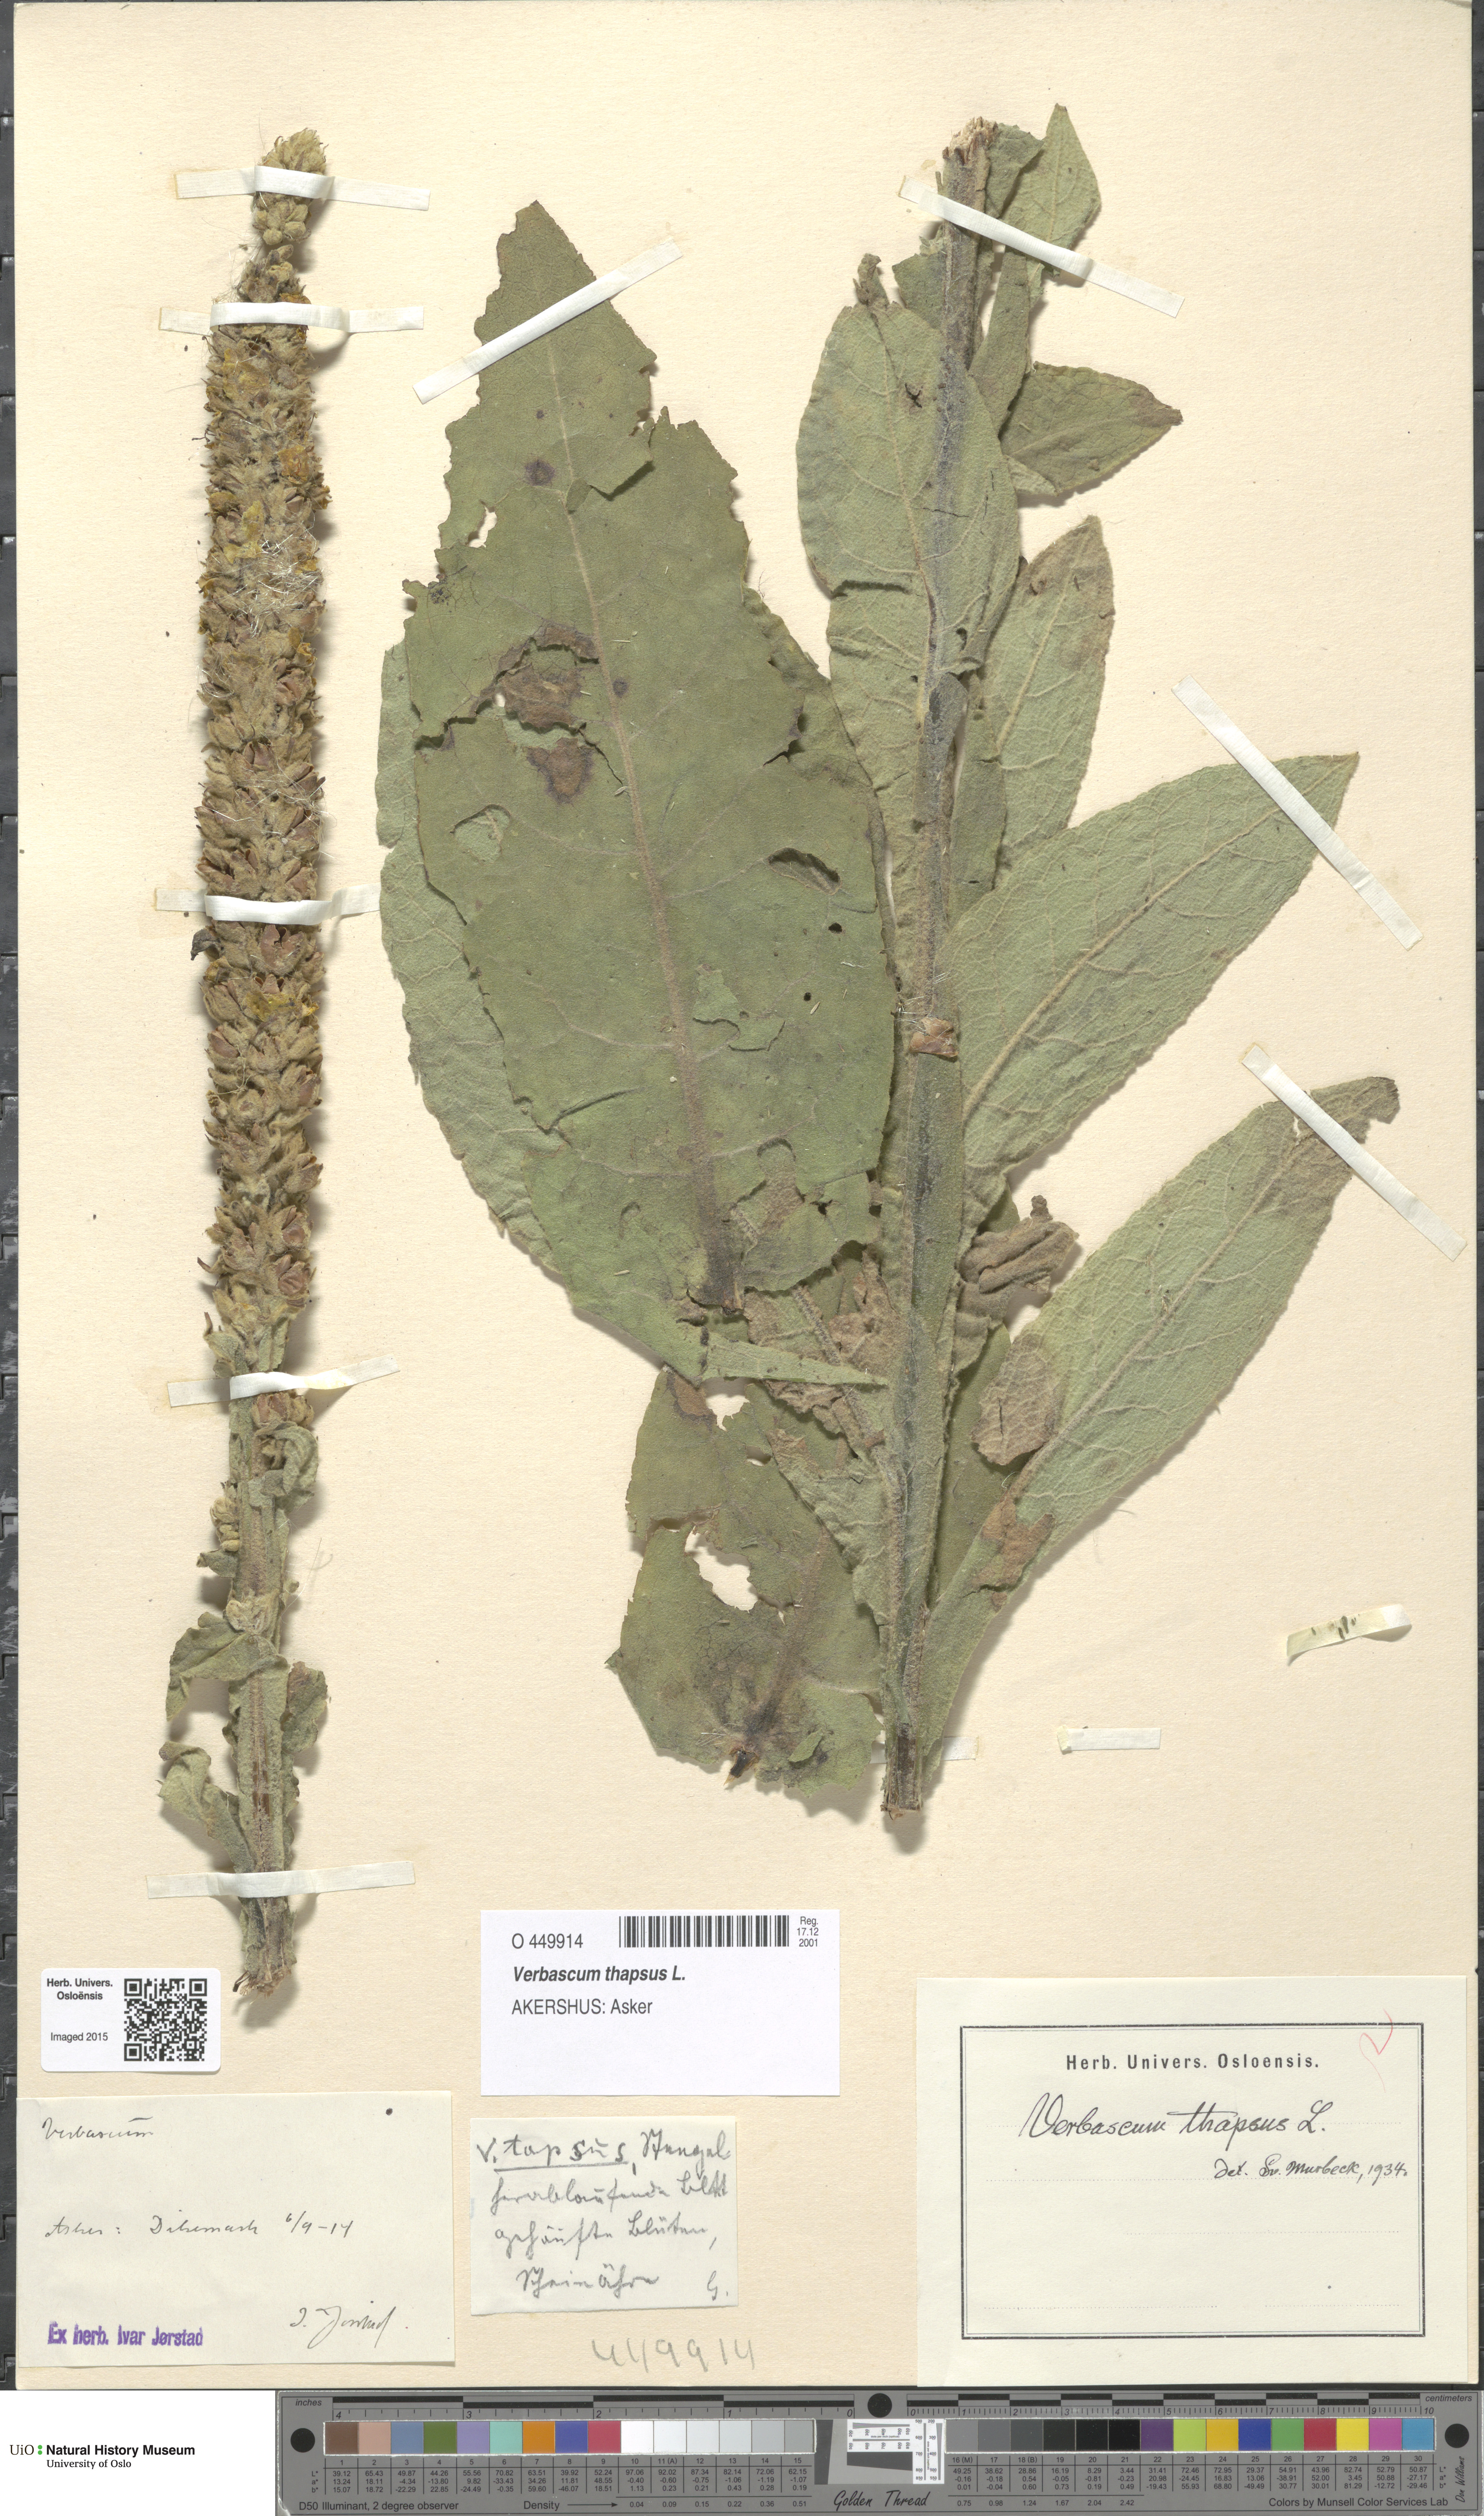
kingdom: Plantae
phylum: Tracheophyta
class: Magnoliopsida
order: Lamiales
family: Scrophulariaceae
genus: Verbascum
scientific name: Verbascum thapsus
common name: Common mullein
